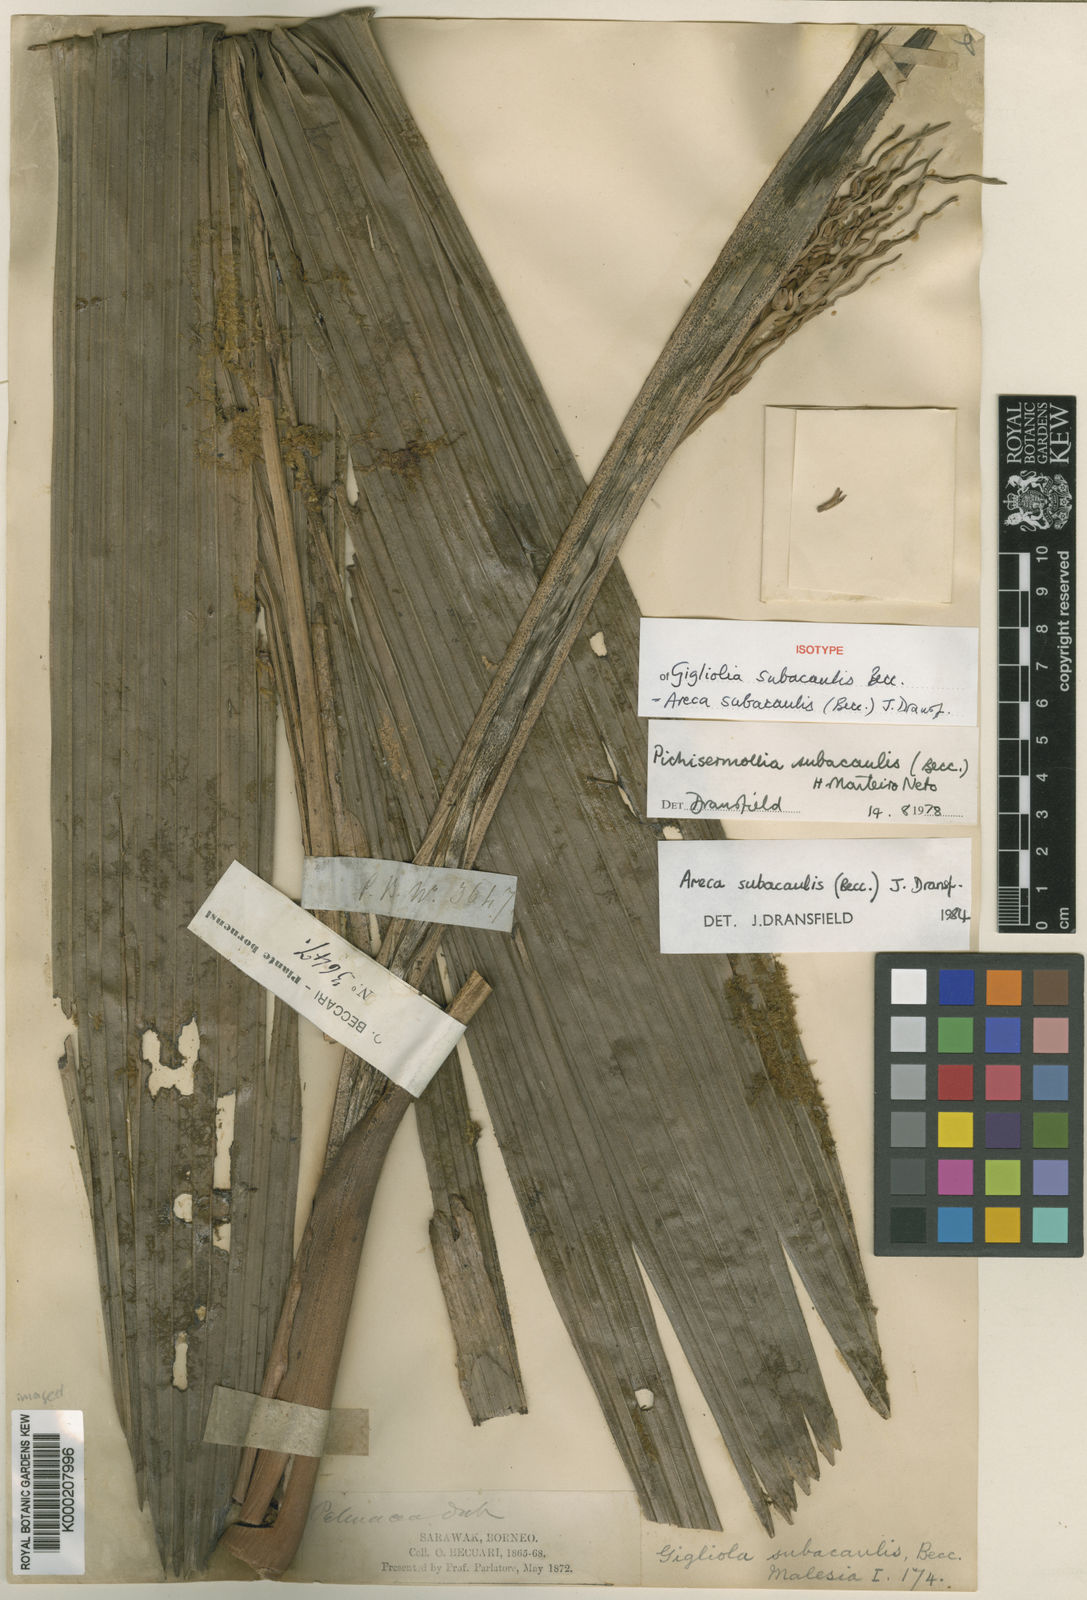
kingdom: Plantae
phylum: Tracheophyta
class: Liliopsida
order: Arecales
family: Arecaceae
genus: Areca
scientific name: Areca subacaulis
